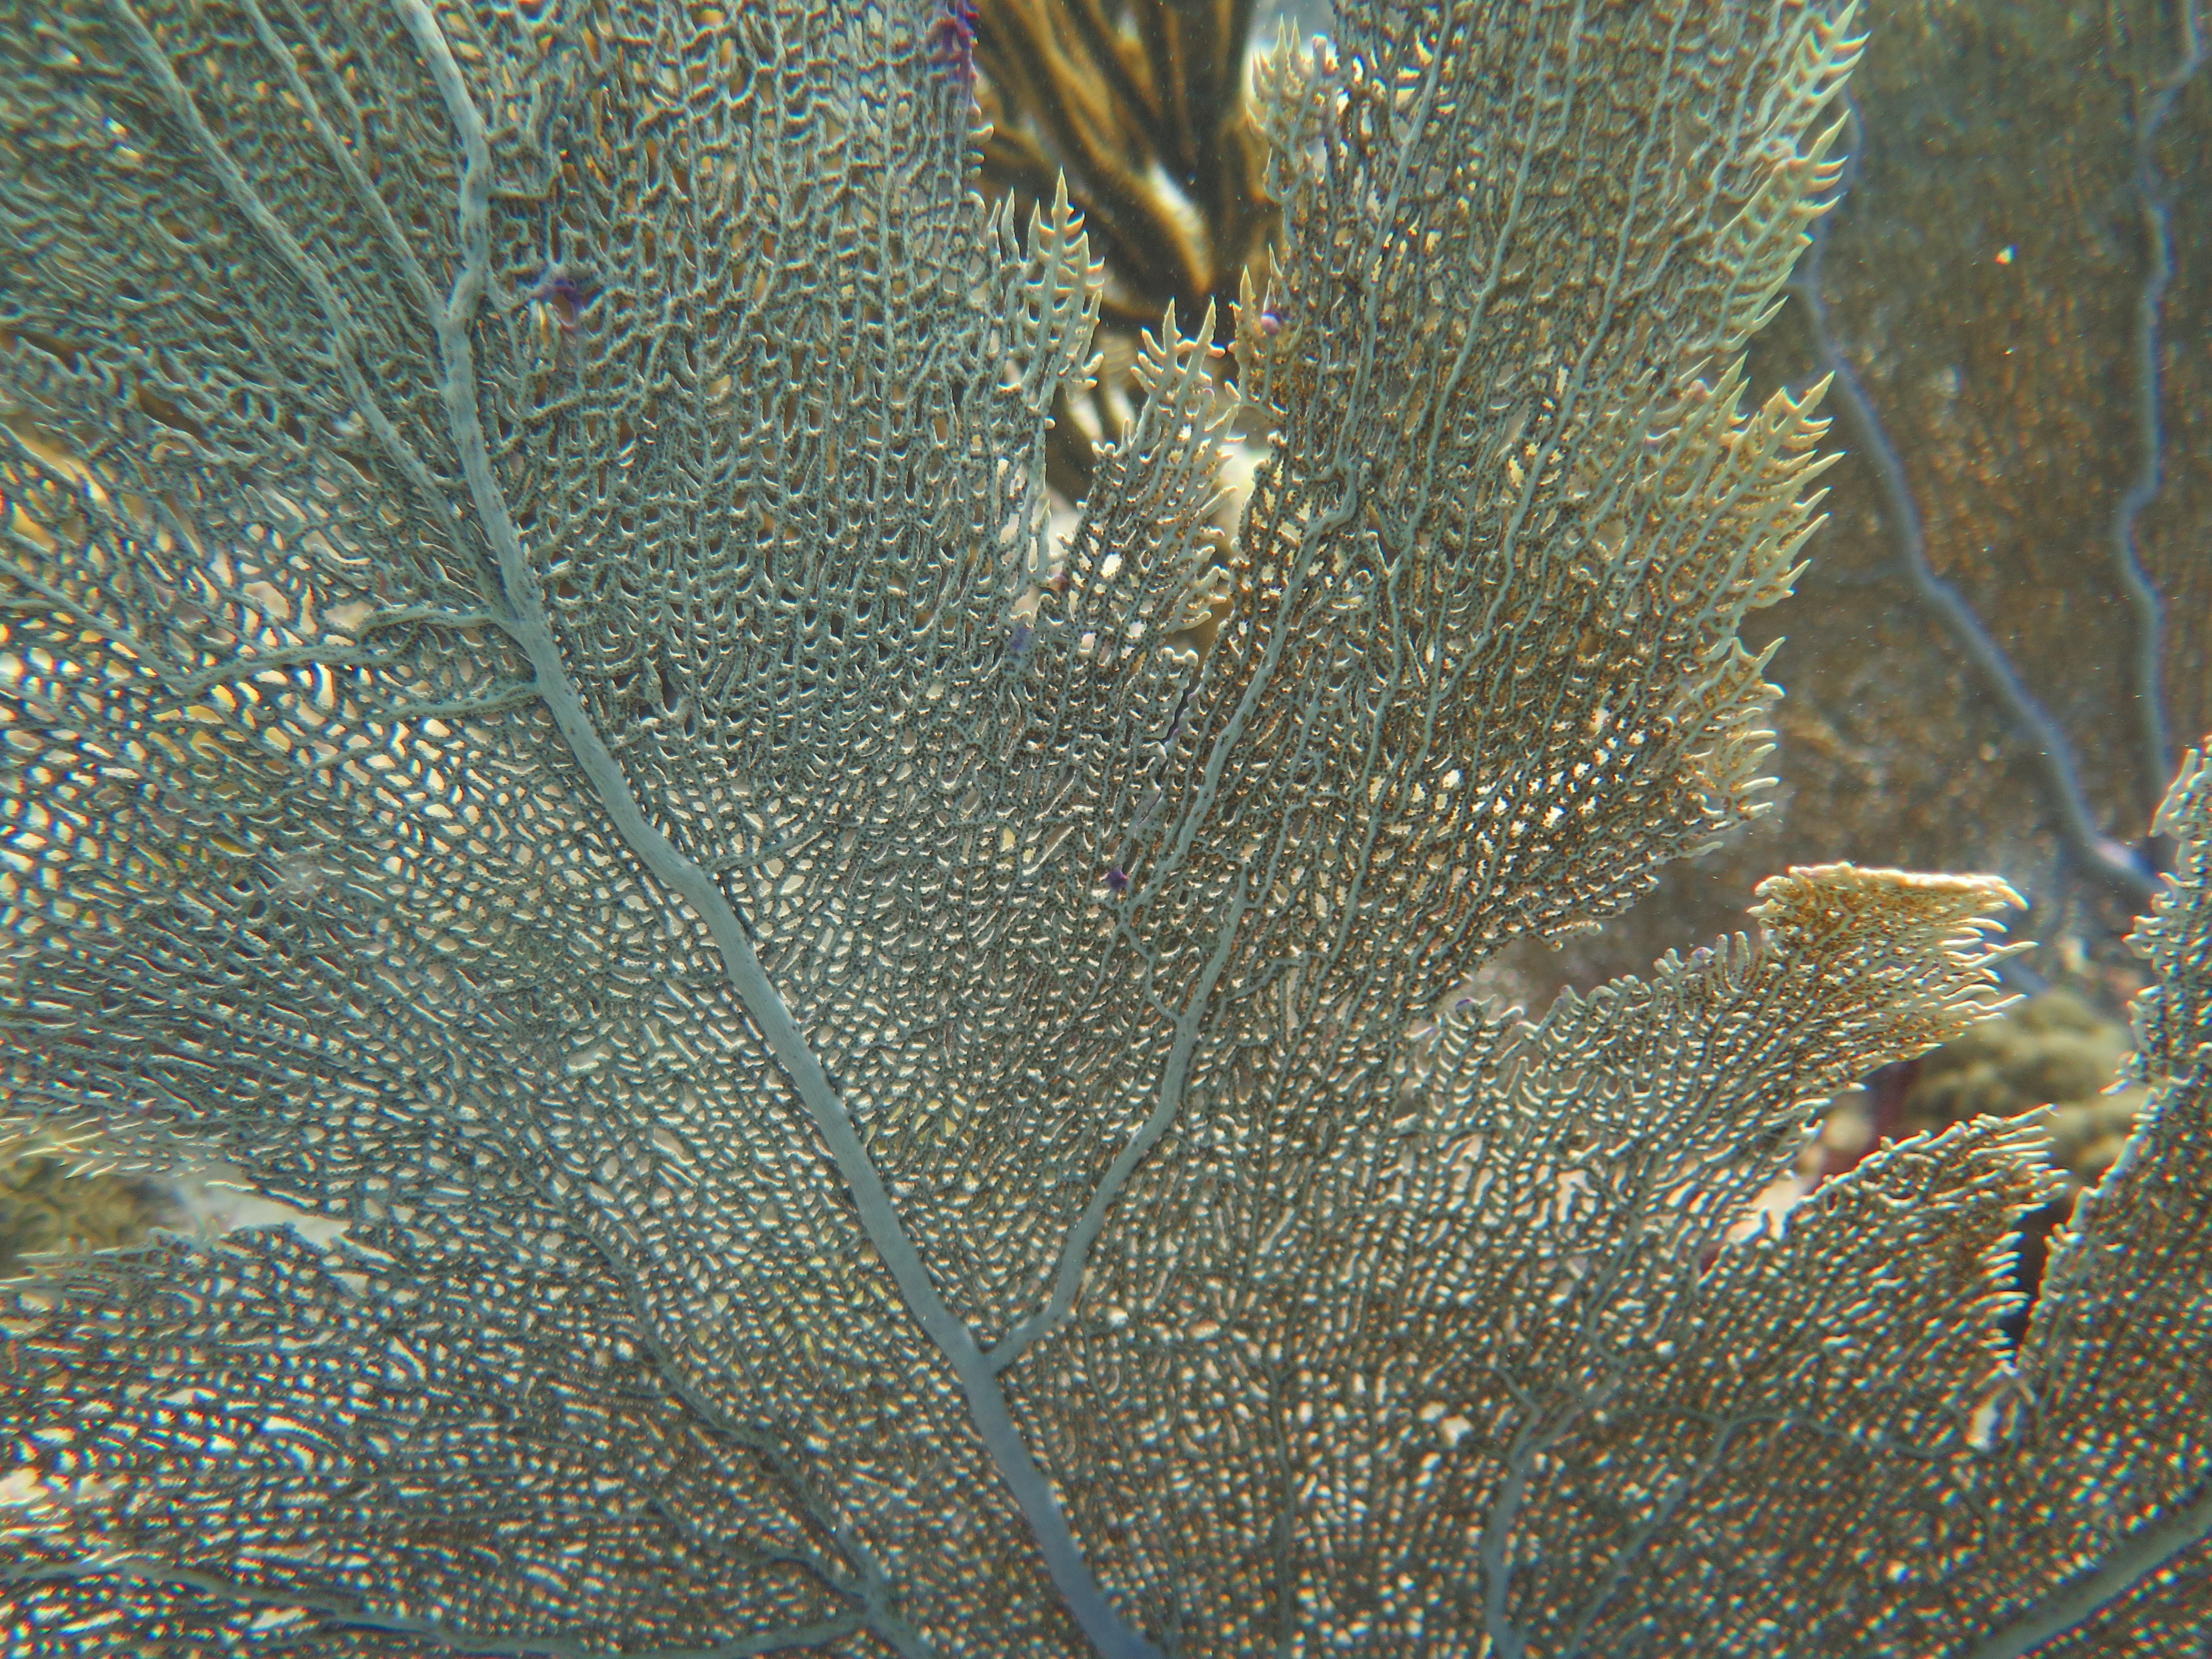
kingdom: Animalia
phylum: Cnidaria
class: Anthozoa
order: Malacalcyonacea
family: Gorgoniidae
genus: Gorgonia
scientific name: Gorgonia
